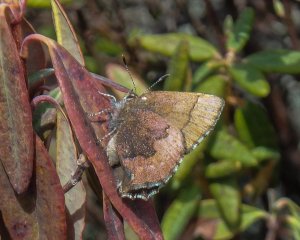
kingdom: Animalia
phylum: Arthropoda
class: Insecta
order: Lepidoptera
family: Lycaenidae
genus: Incisalia
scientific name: Incisalia irioides
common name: Brown Elfin
